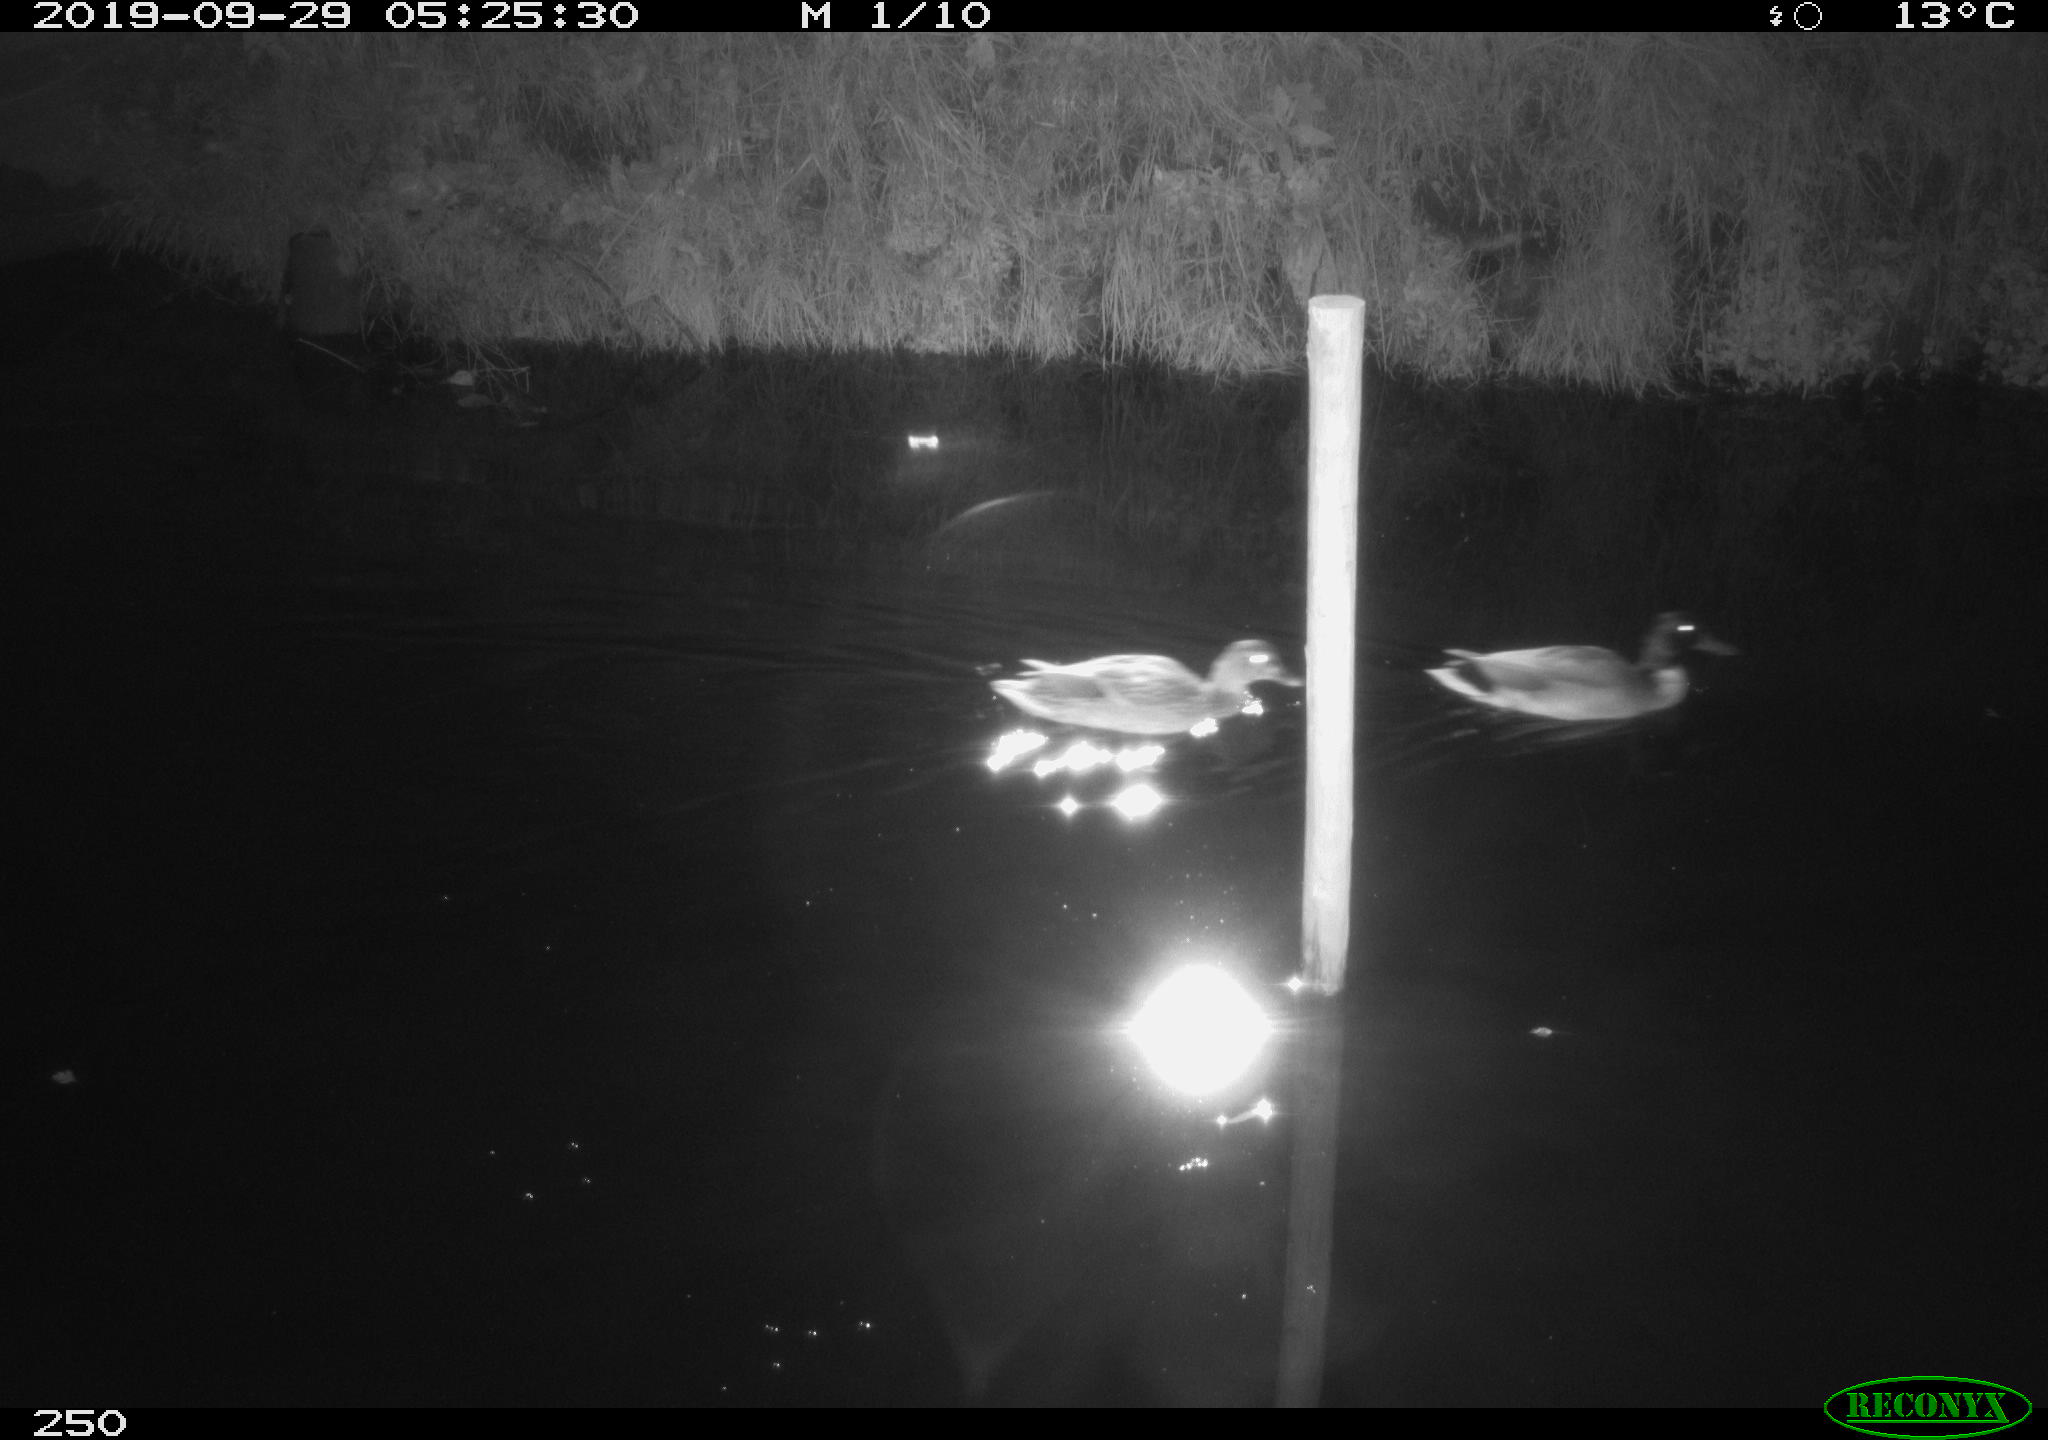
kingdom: Animalia
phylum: Chordata
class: Aves
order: Anseriformes
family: Anatidae
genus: Anas
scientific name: Anas platyrhynchos
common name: Mallard
